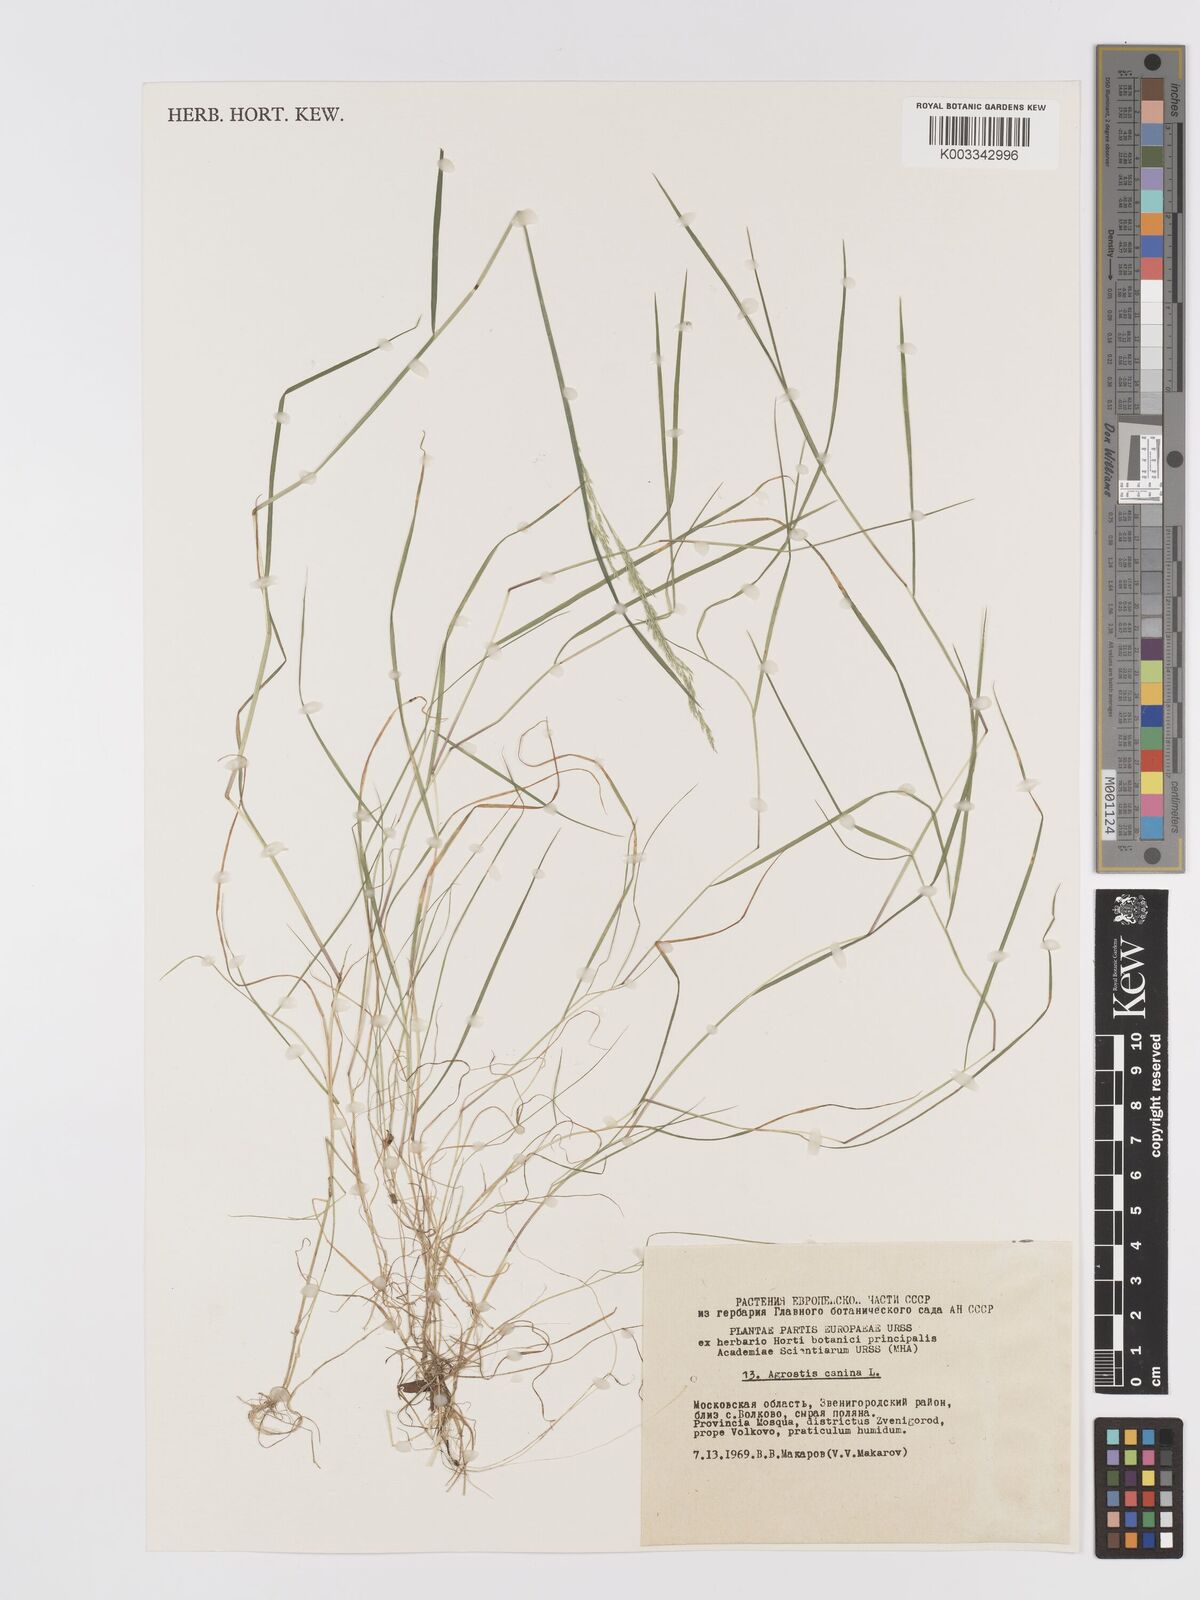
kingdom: Plantae
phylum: Tracheophyta
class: Liliopsida
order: Poales
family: Poaceae
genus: Agrostis
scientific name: Agrostis canina
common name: Velvet bent
